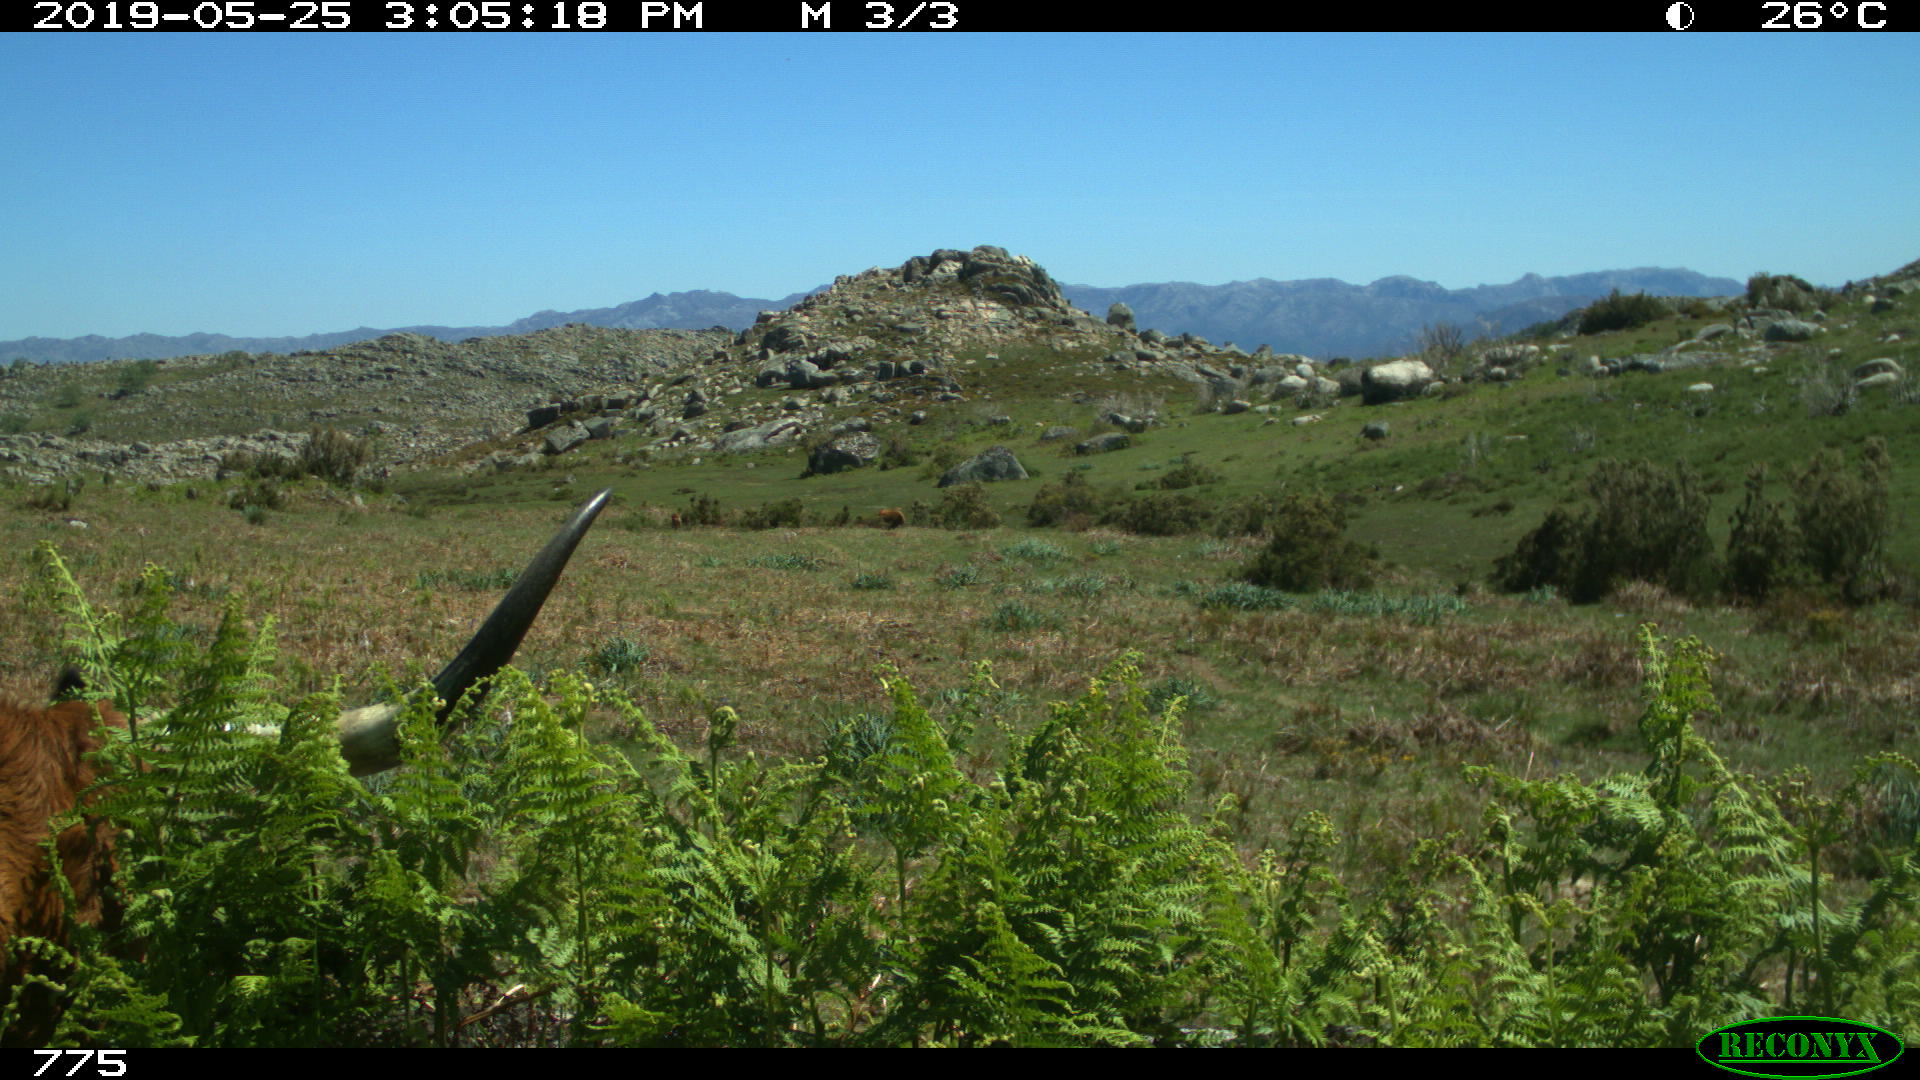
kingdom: Animalia
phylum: Chordata
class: Mammalia
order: Artiodactyla
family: Bovidae
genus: Bos
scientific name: Bos taurus
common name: Domesticated cattle
